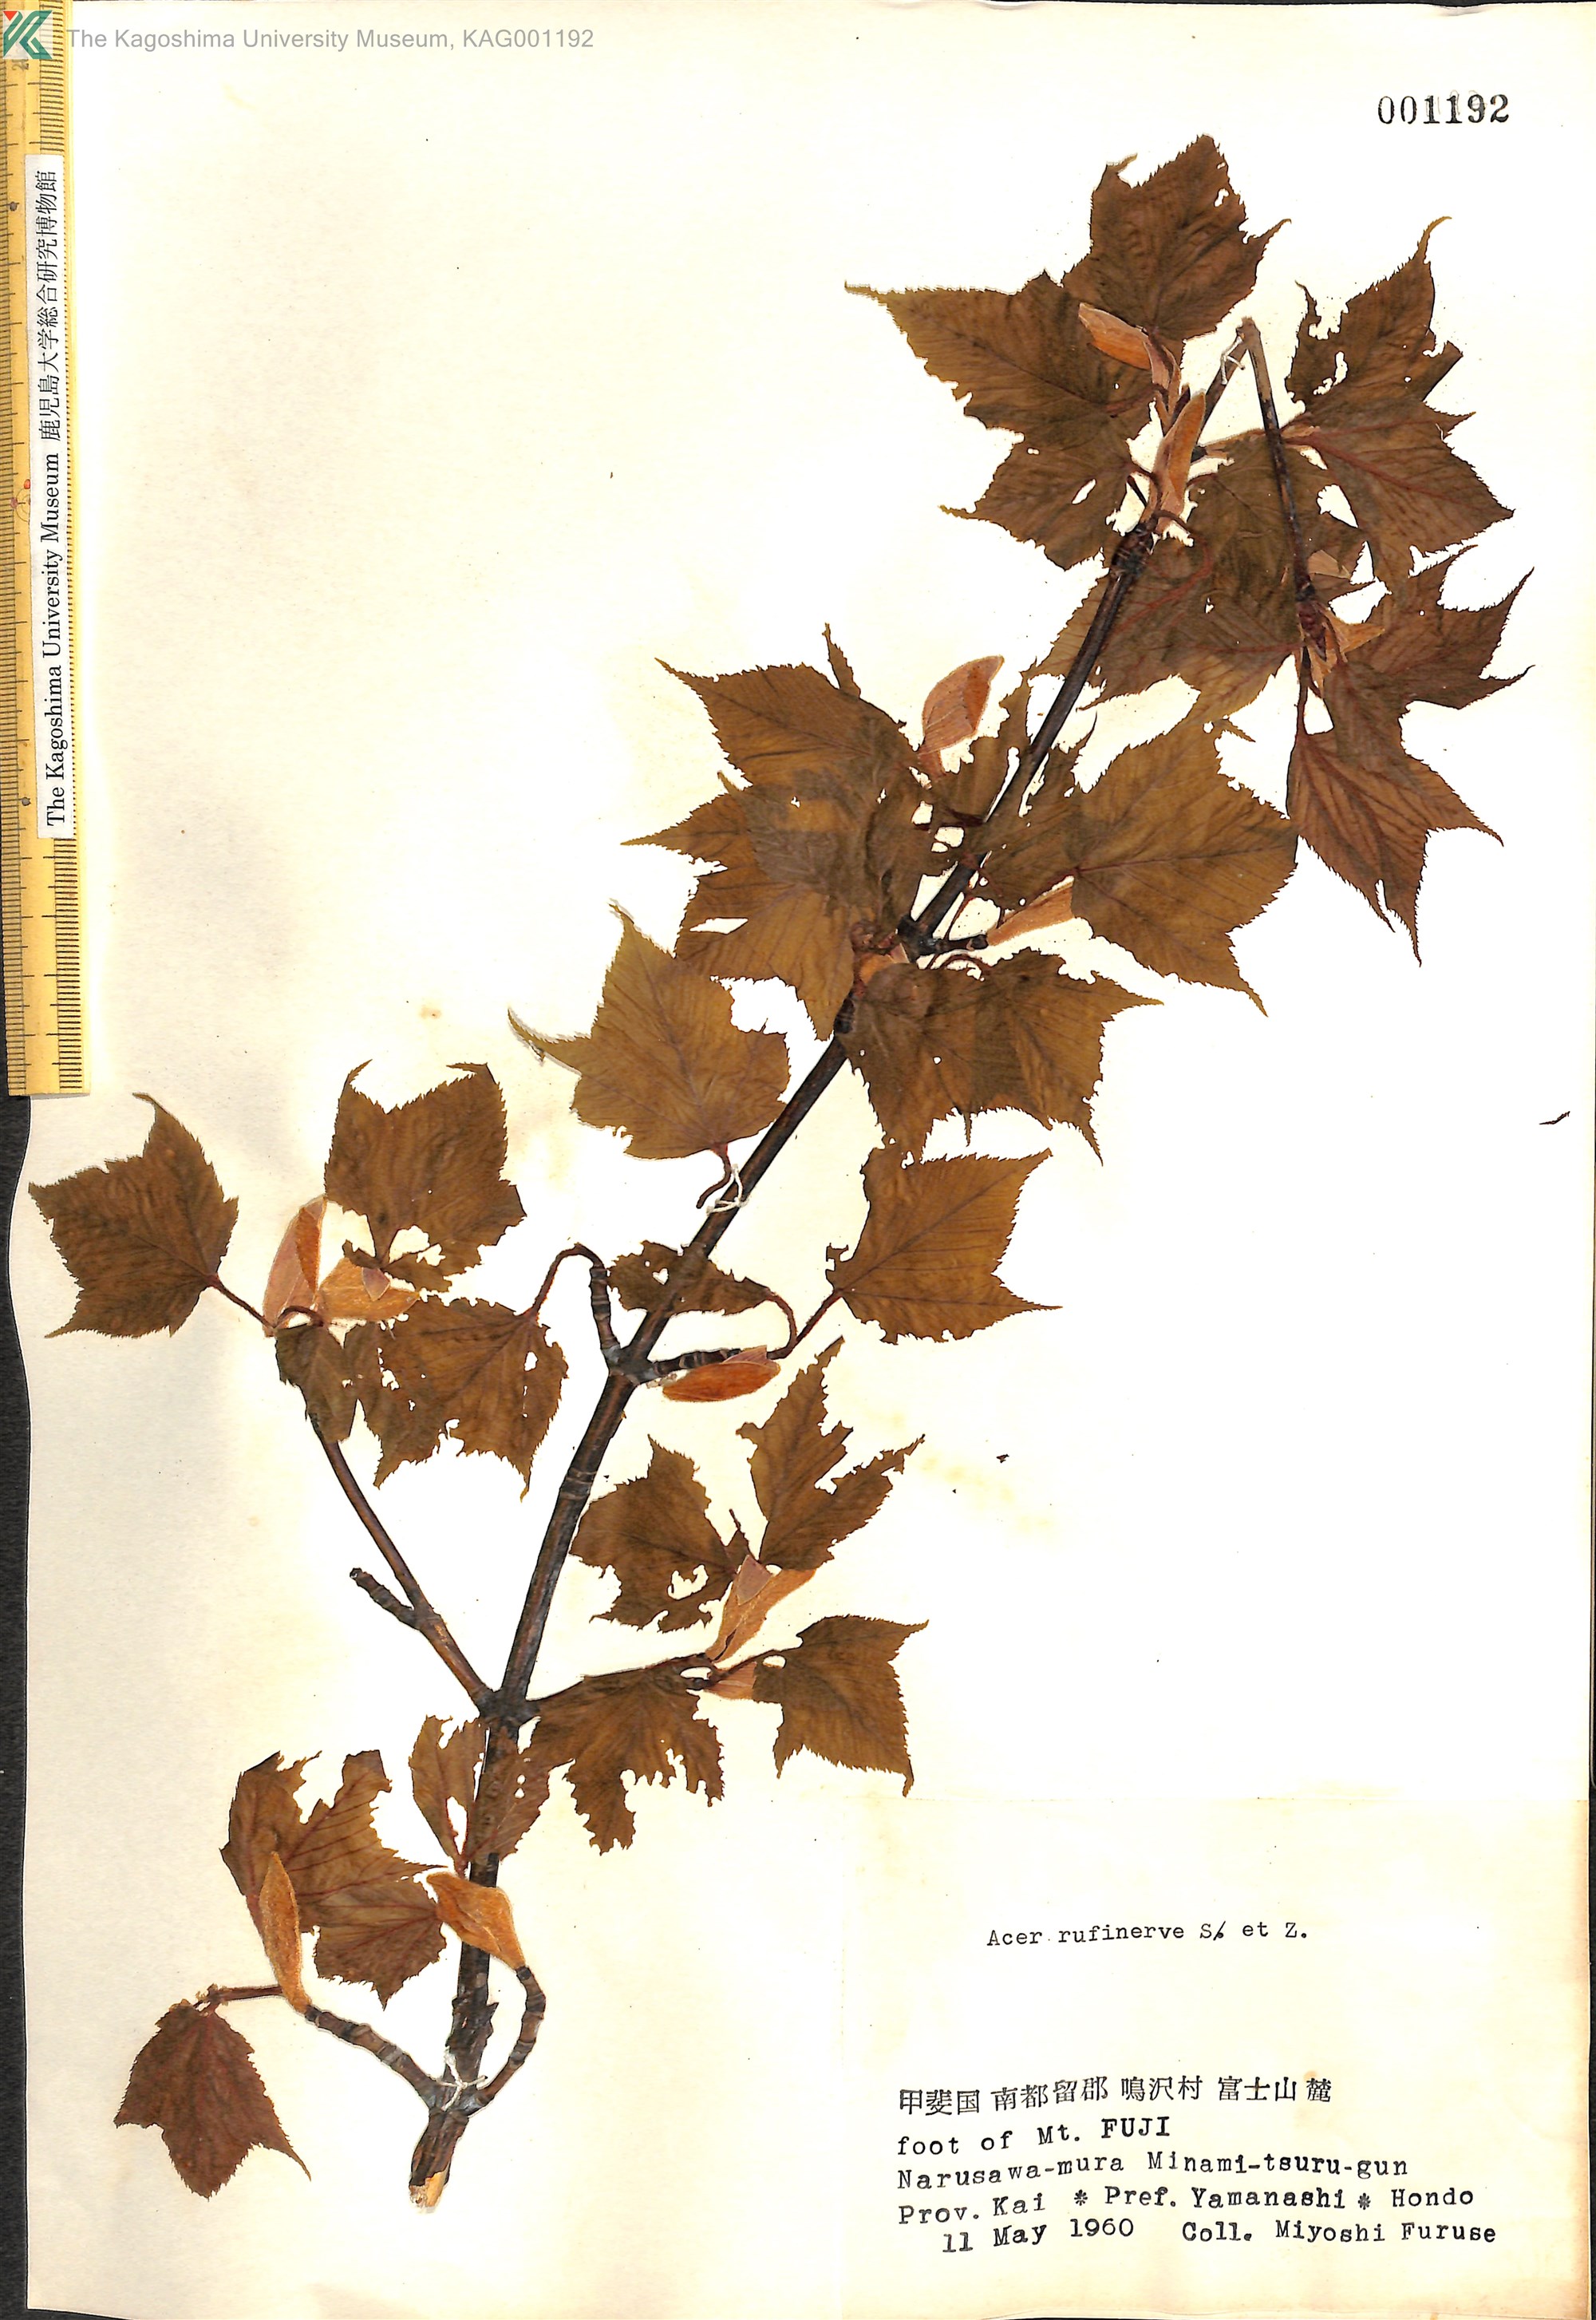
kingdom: Plantae
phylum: Tracheophyta
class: Magnoliopsida
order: Sapindales
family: Sapindaceae
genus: Acer
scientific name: Acer rufinerve
